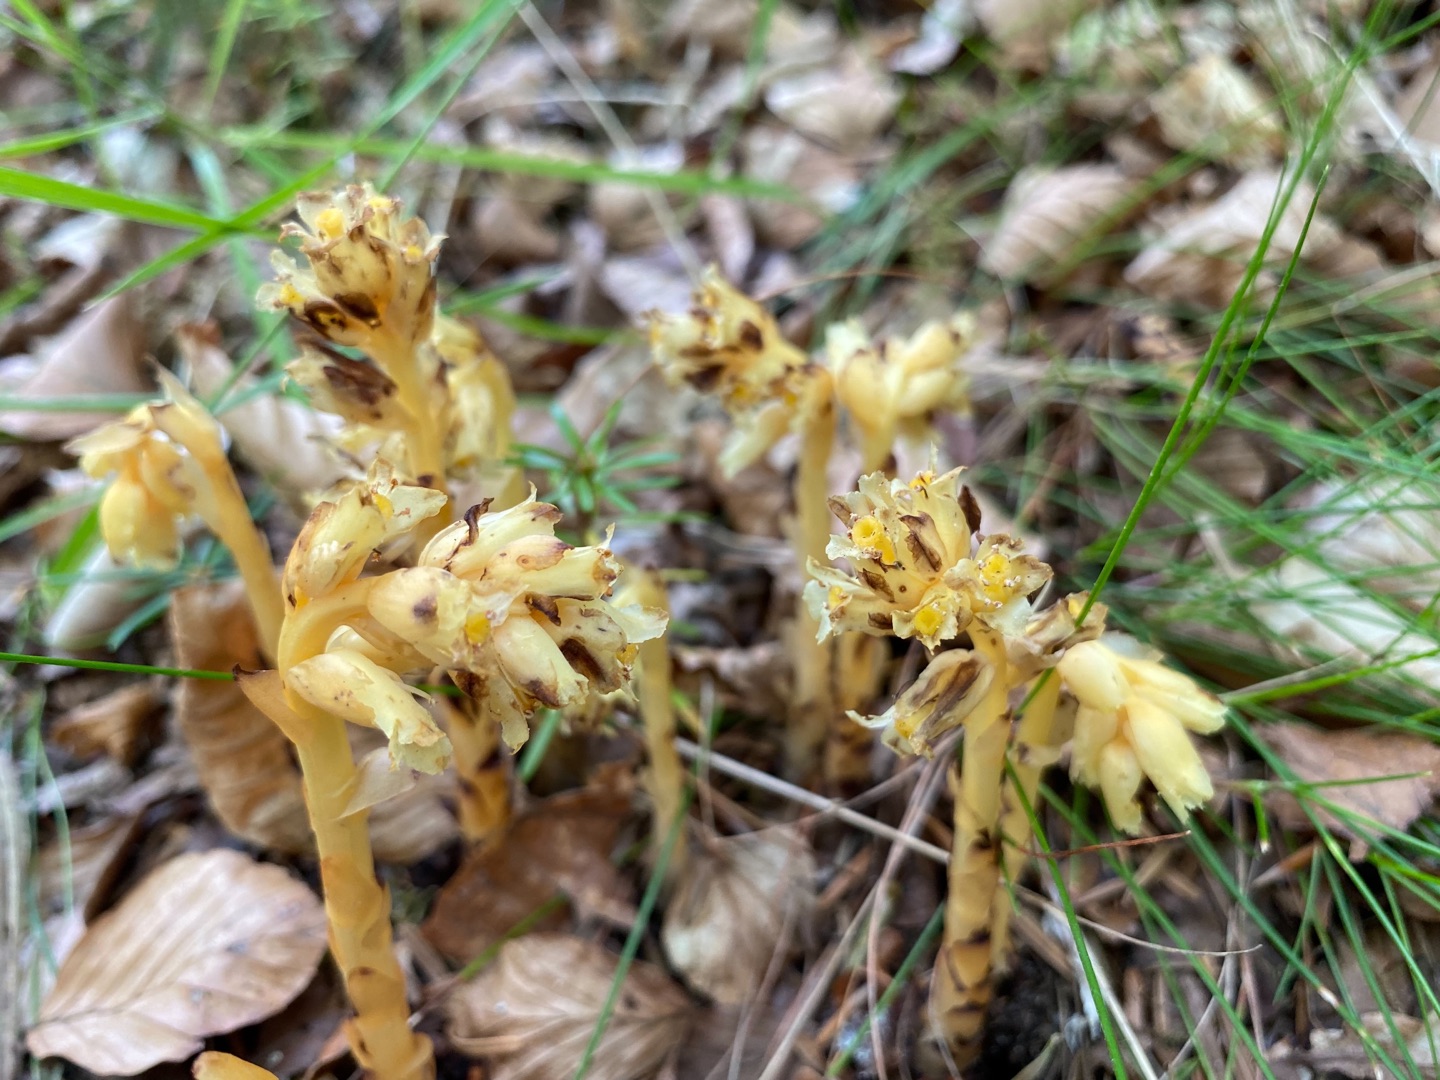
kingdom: Plantae
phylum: Tracheophyta
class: Magnoliopsida
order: Ericales
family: Ericaceae
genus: Hypopitys
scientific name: Hypopitys hypophegea
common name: Glat snylterod
